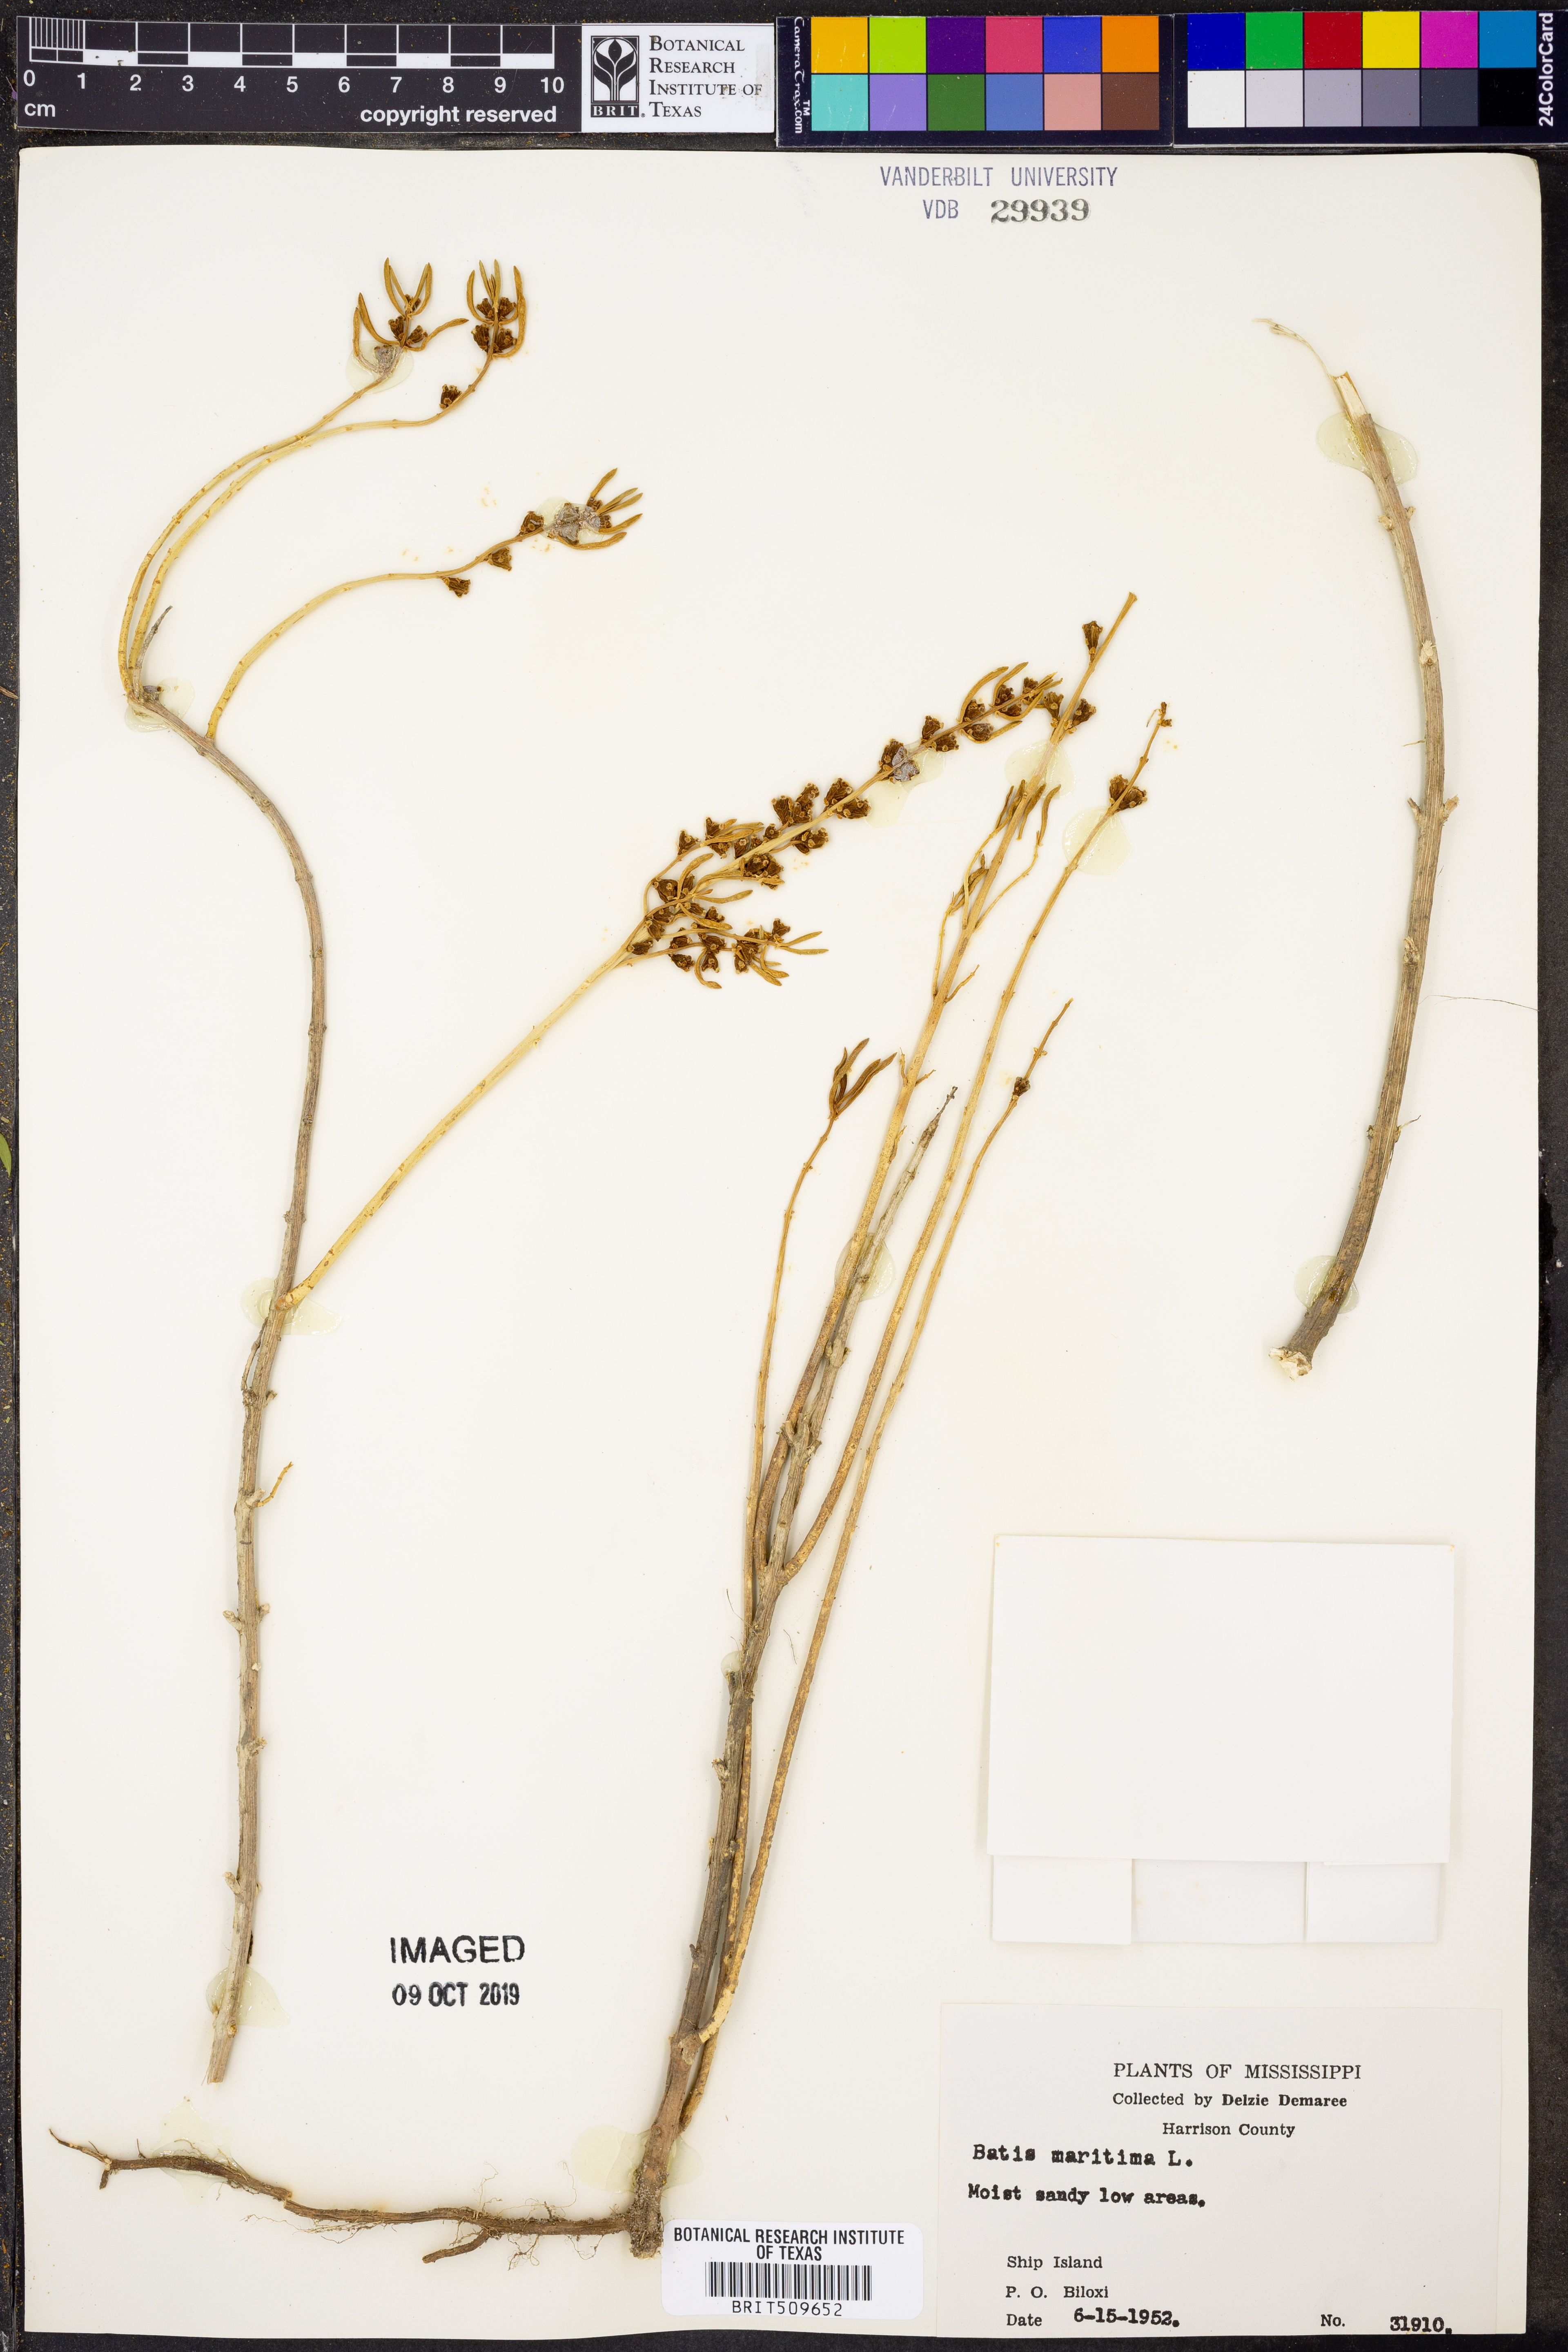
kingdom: Plantae
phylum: Tracheophyta
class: Magnoliopsida
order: Brassicales
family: Bataceae
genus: Batis
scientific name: Batis maritima
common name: Turtleweed
